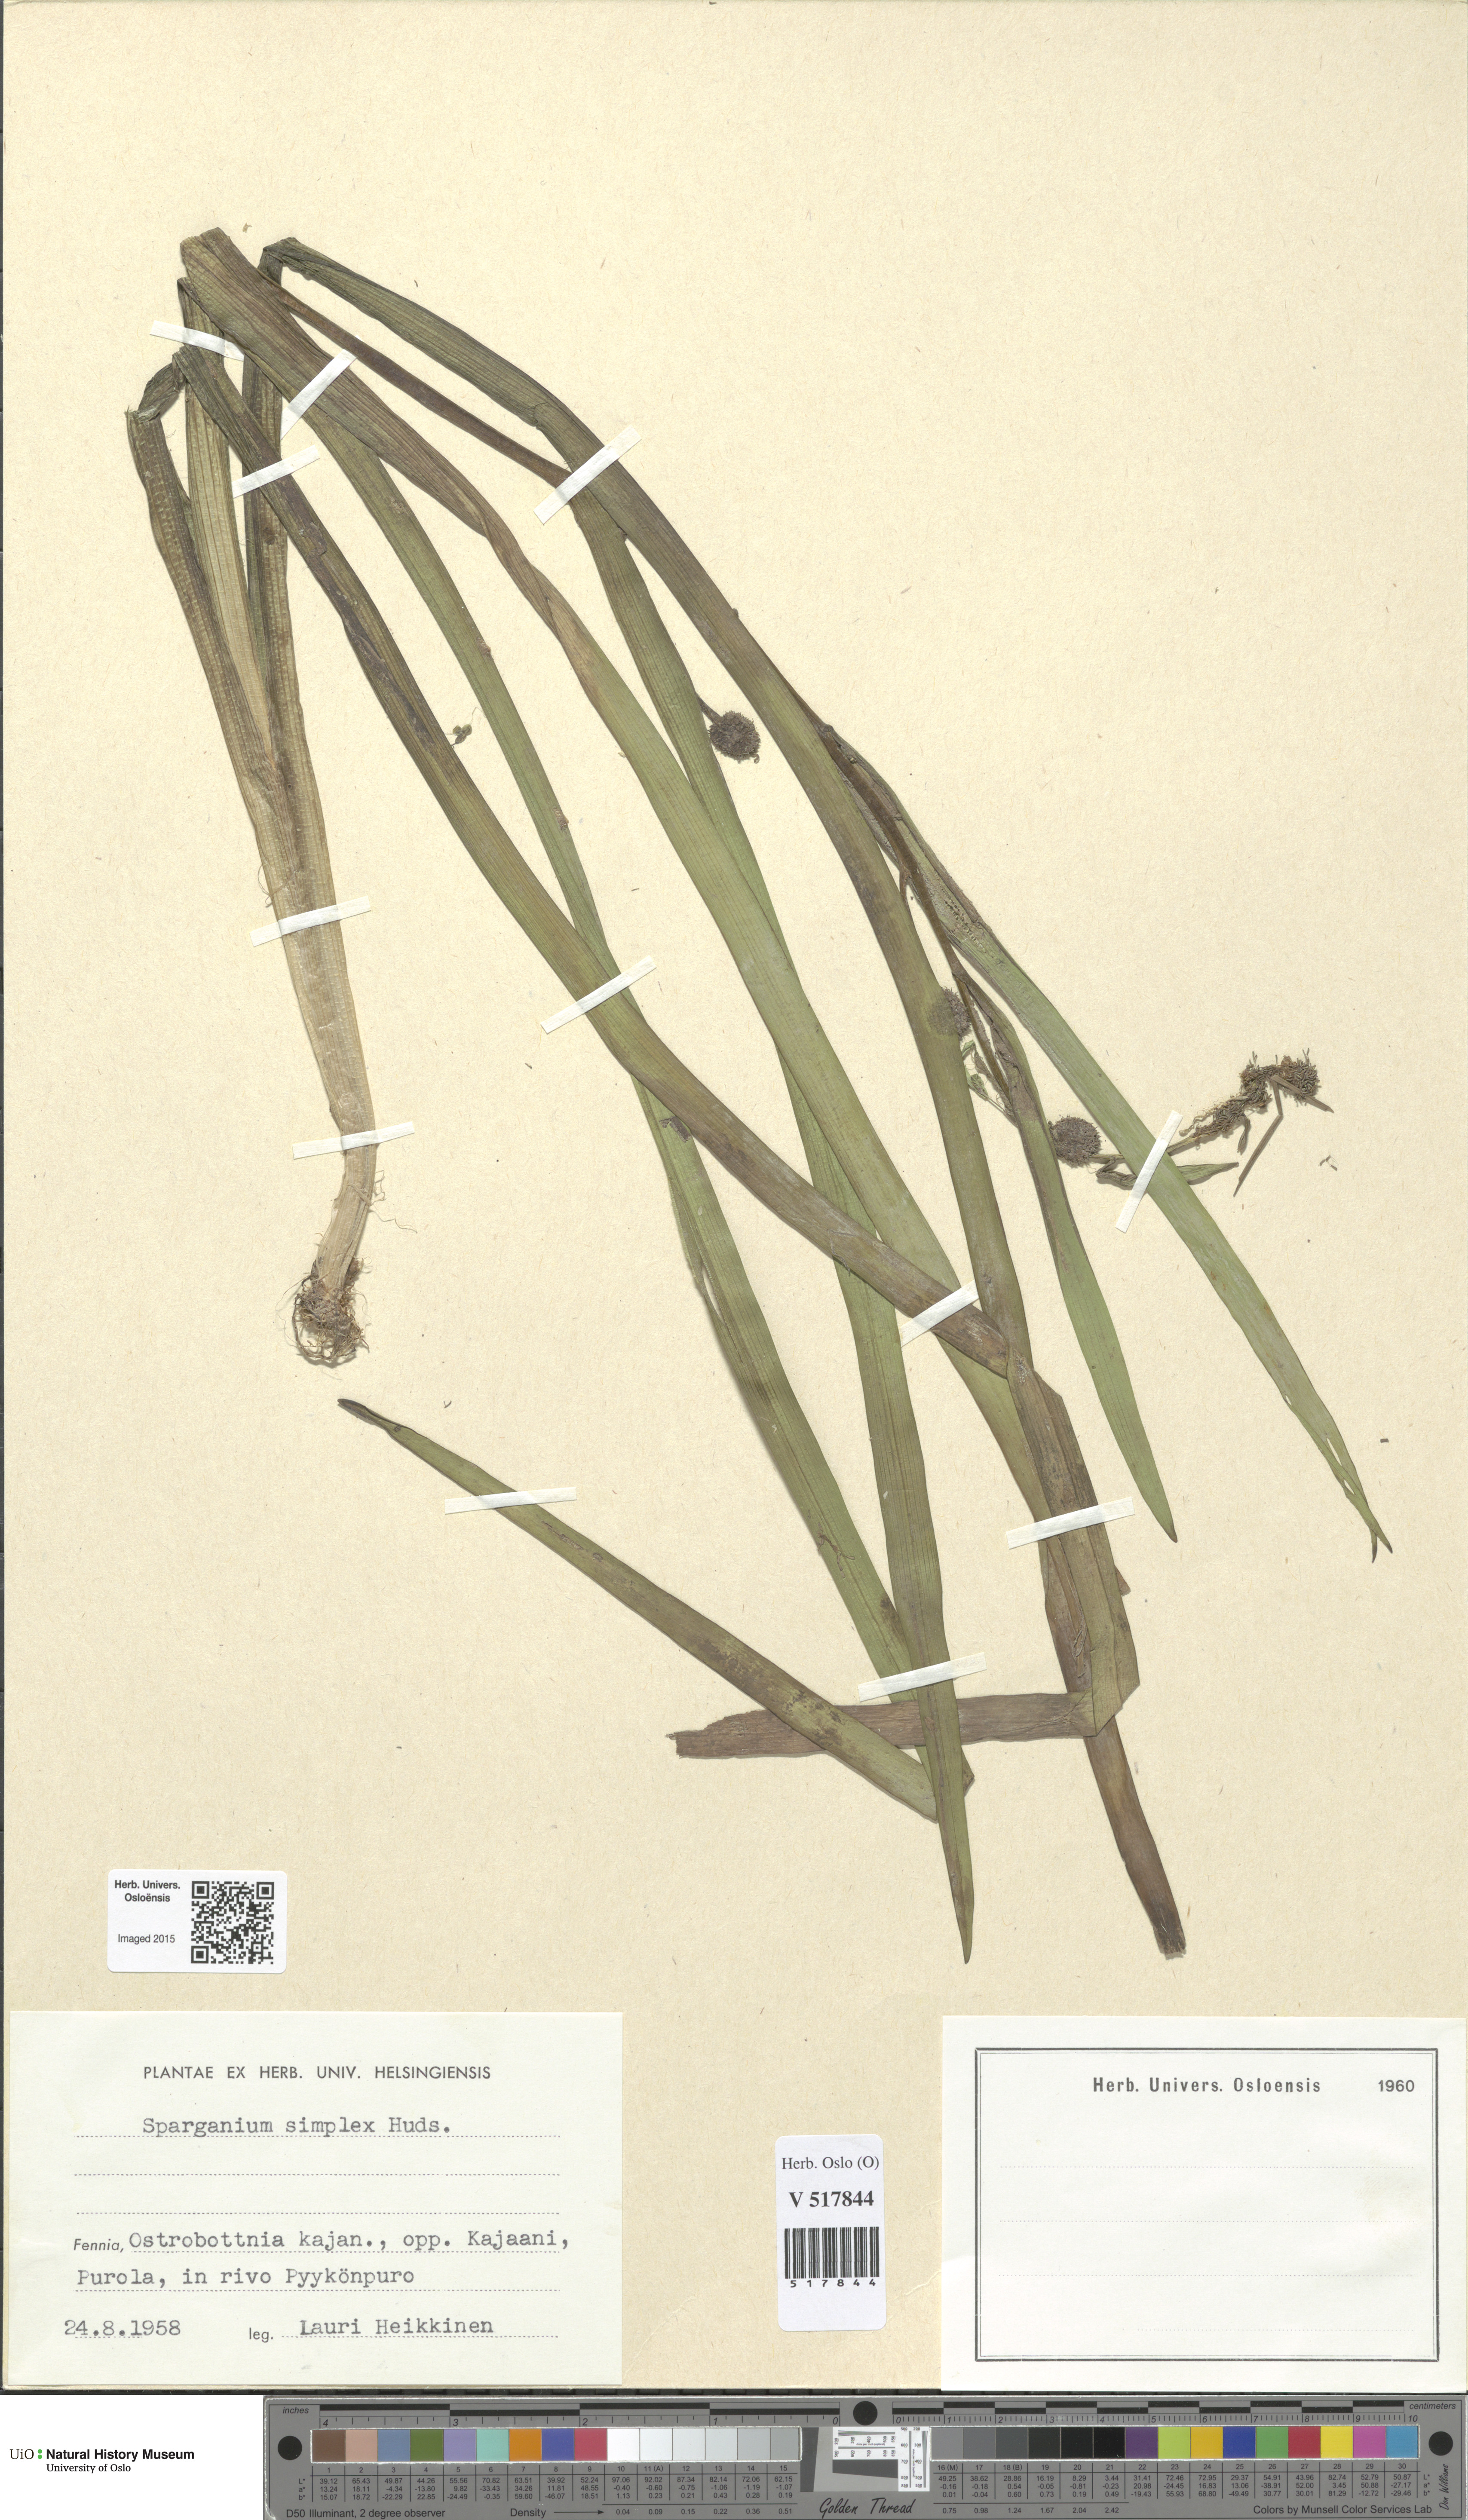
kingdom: Plantae
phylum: Tracheophyta
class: Liliopsida
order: Poales
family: Typhaceae
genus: Sparganium
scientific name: Sparganium emersum
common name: Unbranched bur-reed
